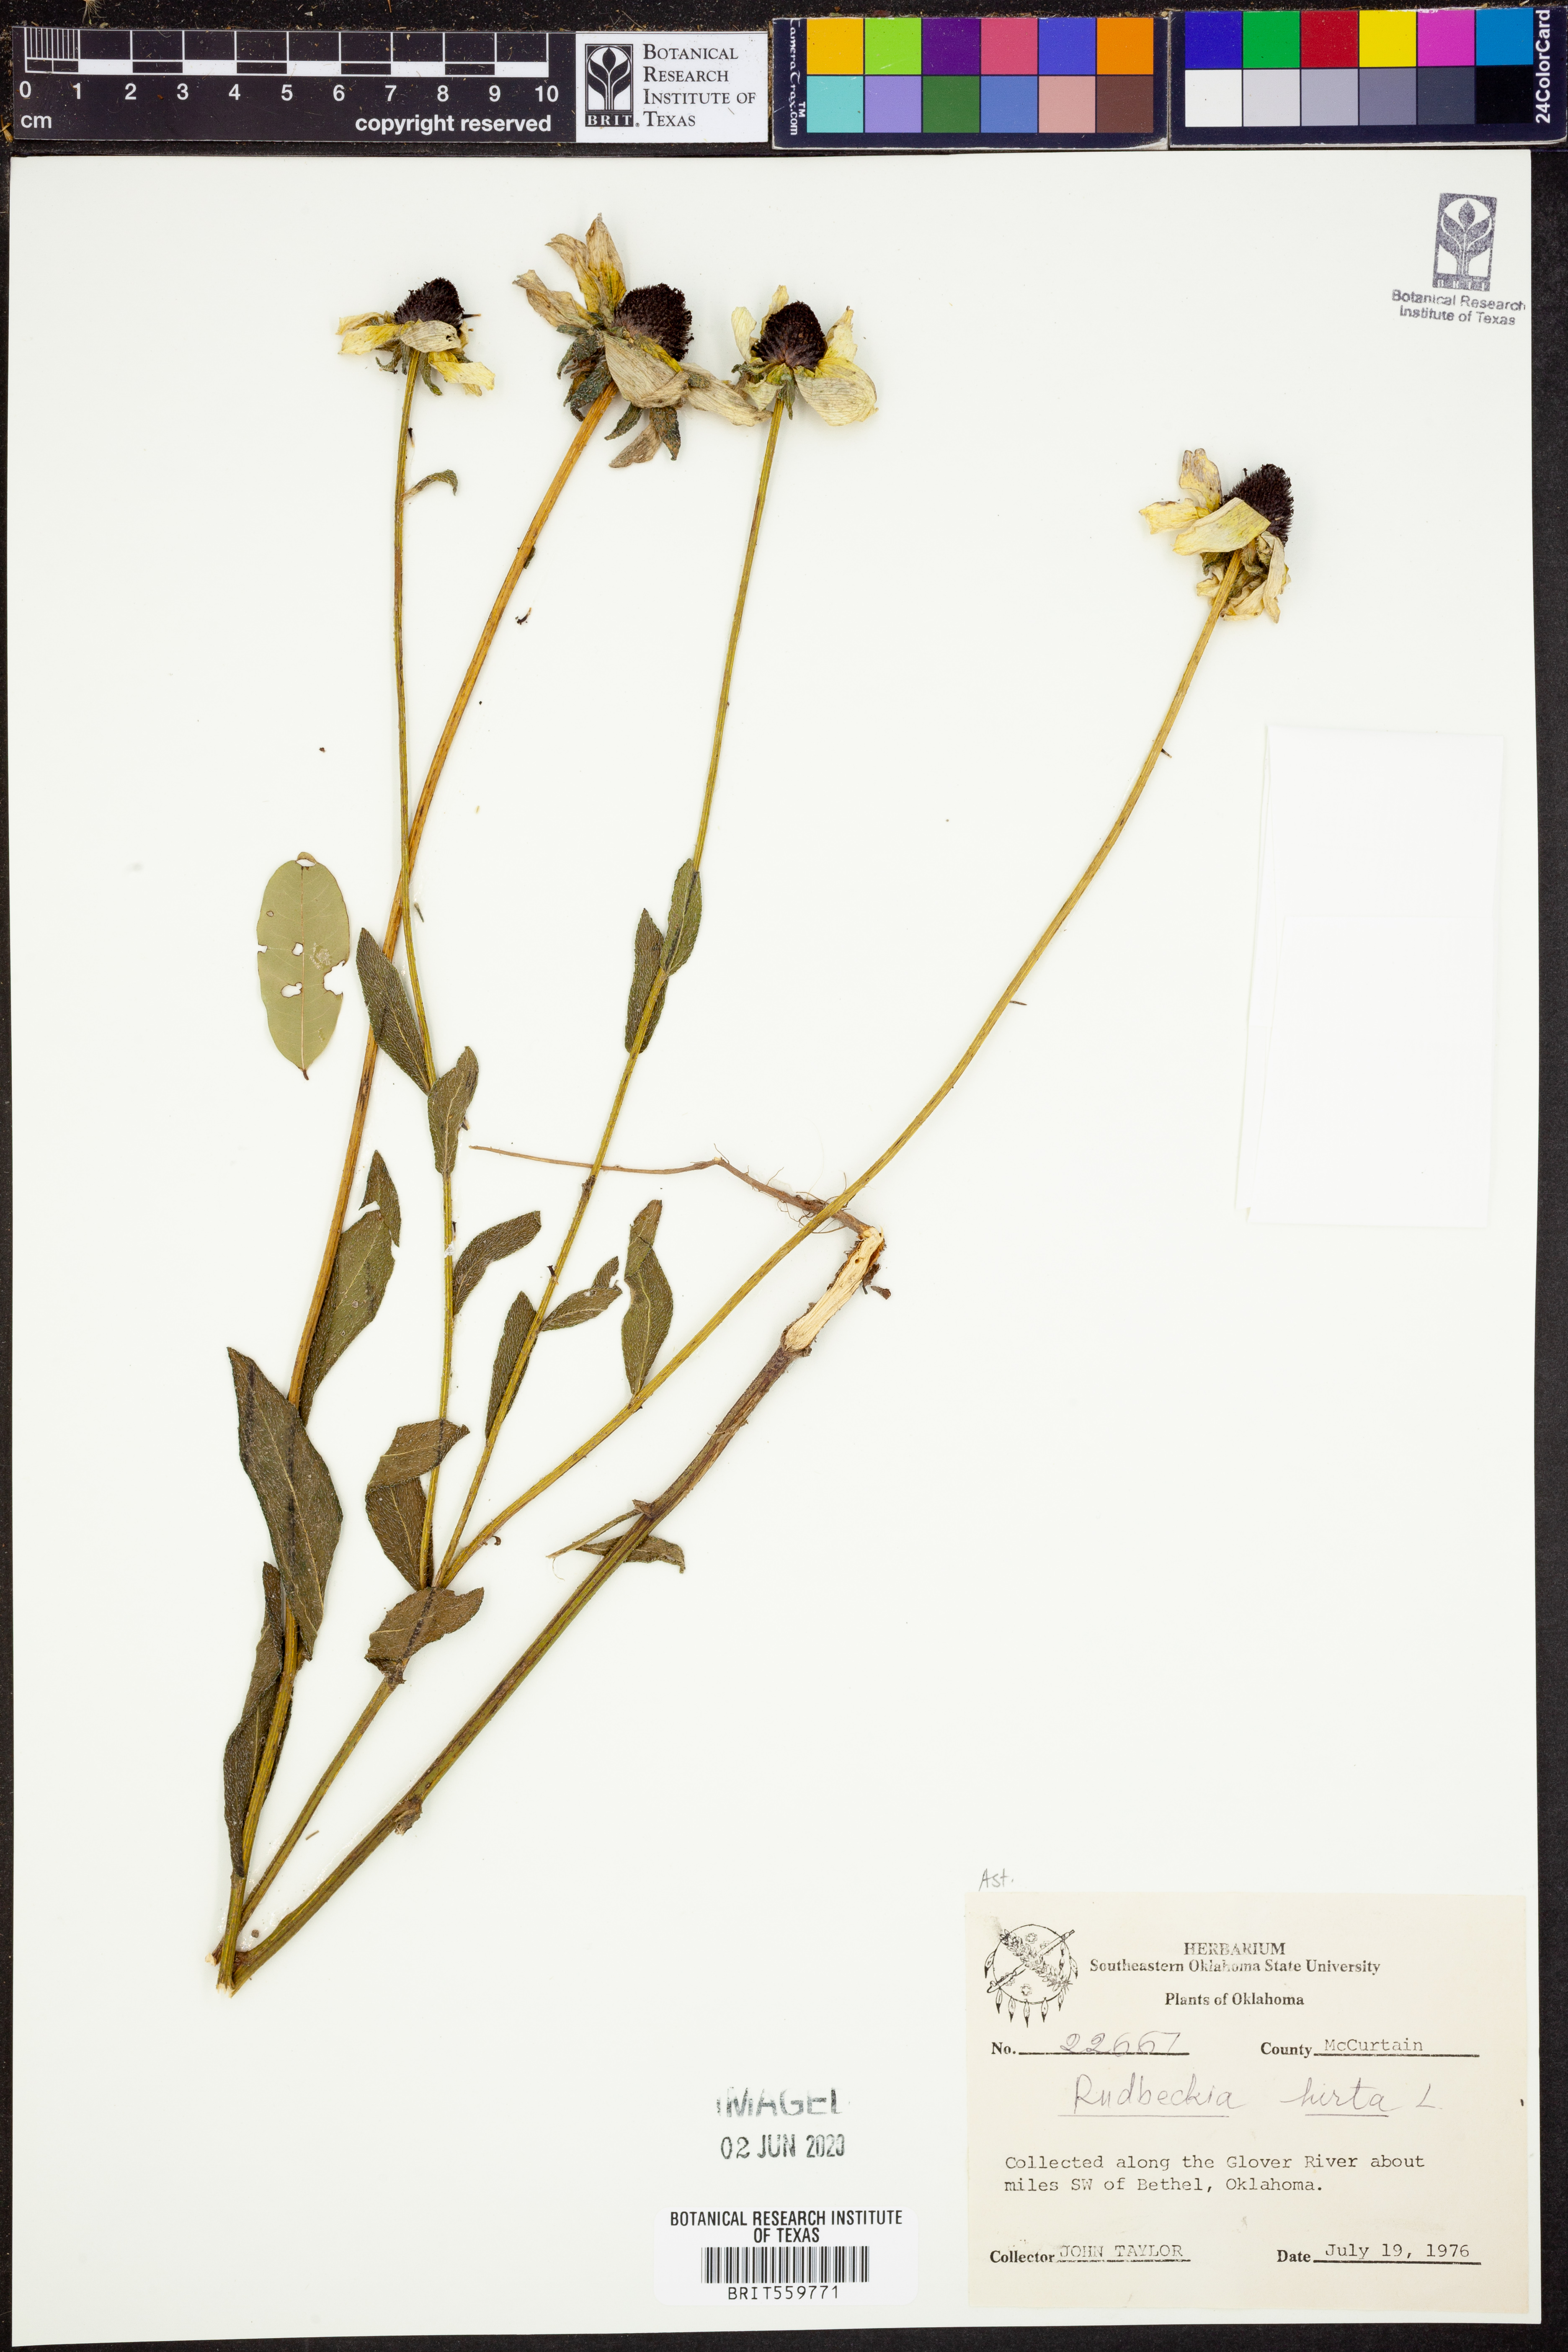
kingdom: Plantae
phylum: Tracheophyta
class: Magnoliopsida
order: Asterales
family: Asteraceae
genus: Rudbeckia
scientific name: Rudbeckia hirta
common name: Black-eyed-susan
